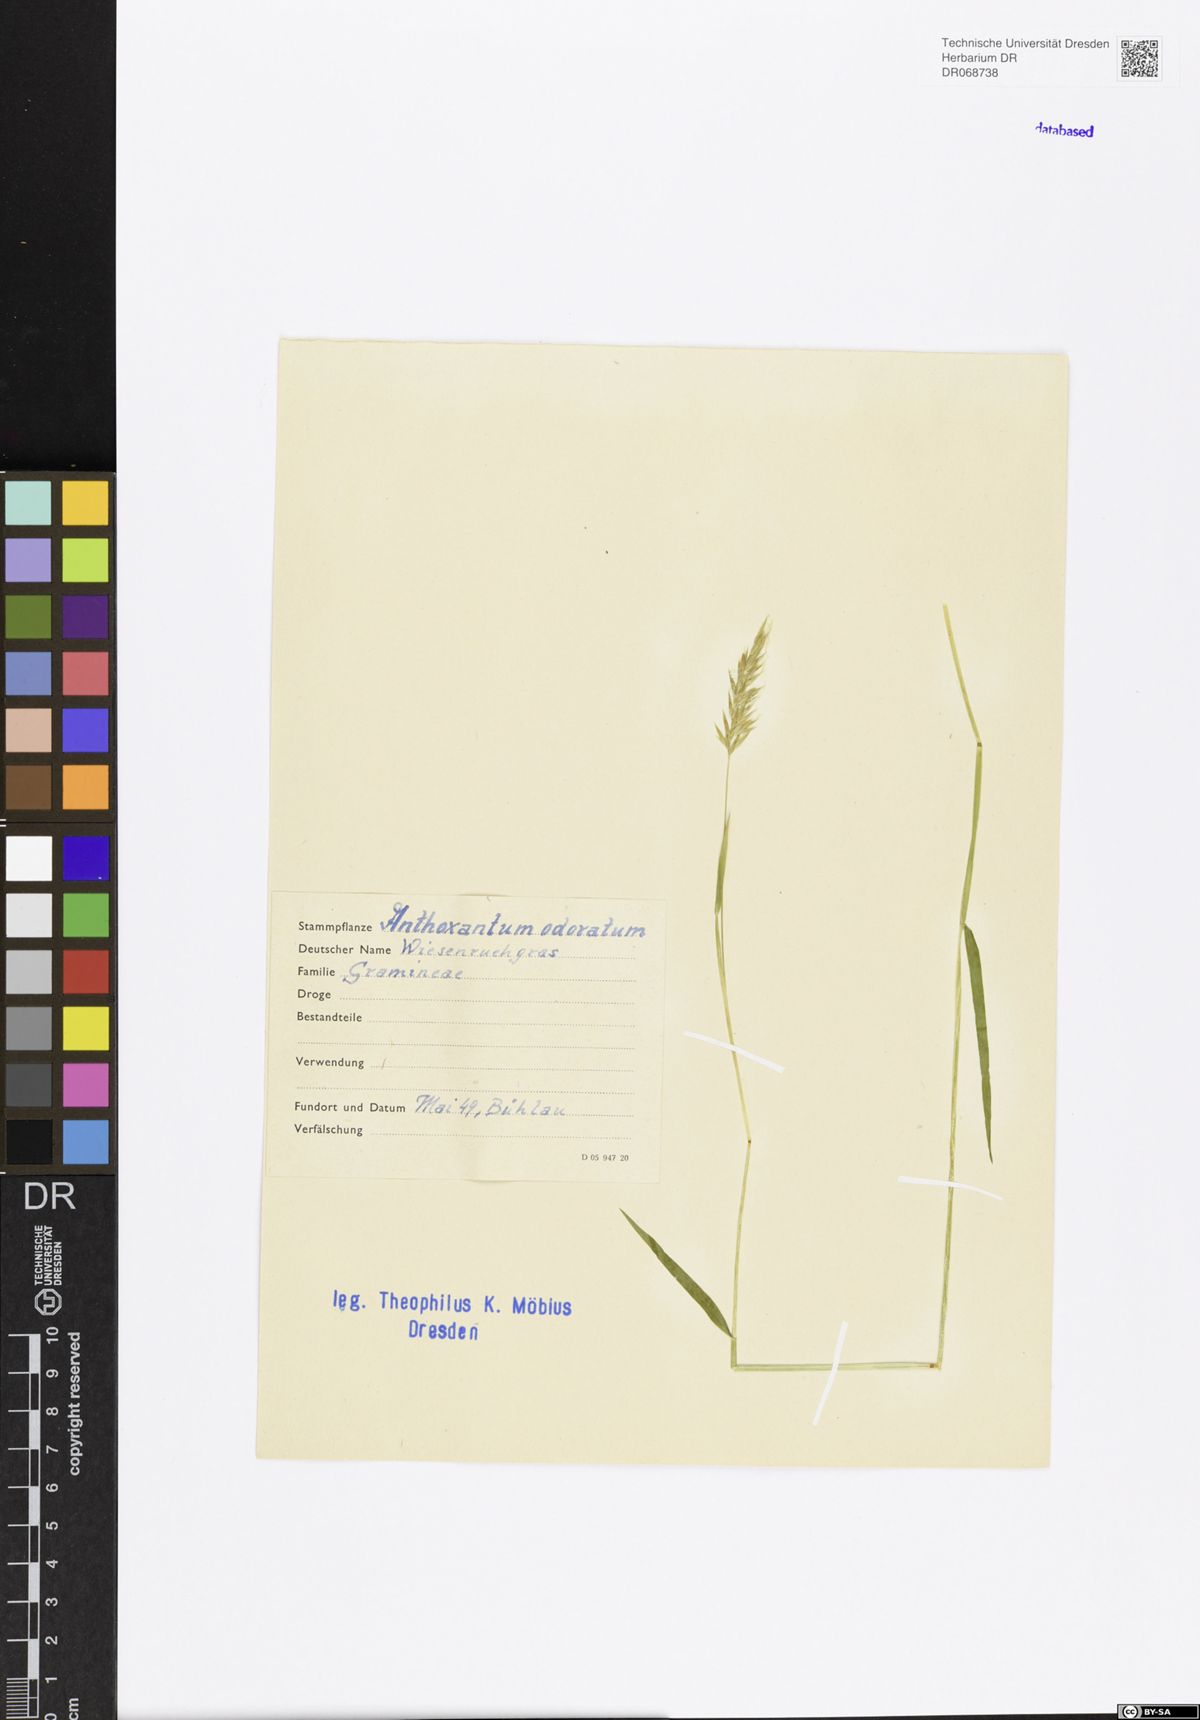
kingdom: Plantae
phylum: Tracheophyta
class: Liliopsida
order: Poales
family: Poaceae
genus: Anthoxanthum
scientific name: Anthoxanthum odoratum
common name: Sweet vernalgrass
